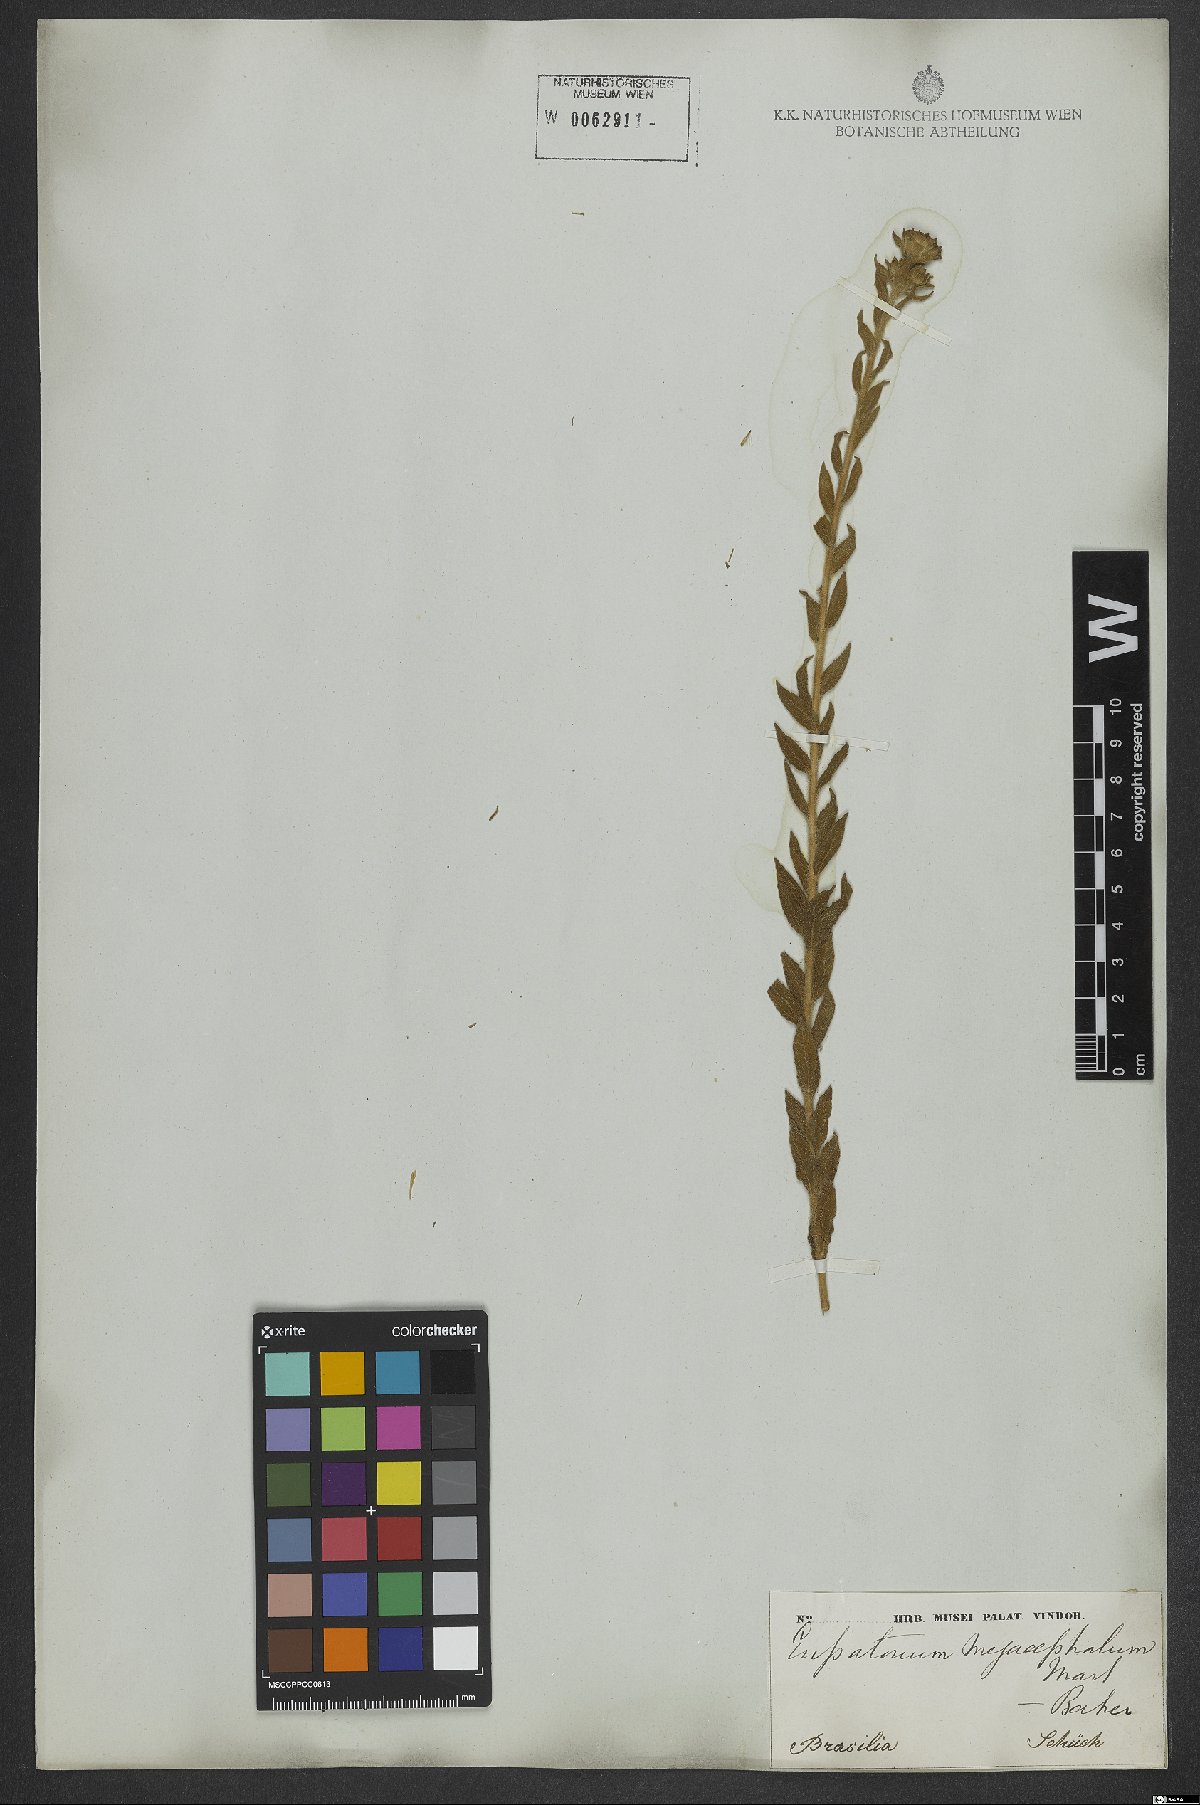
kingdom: Plantae
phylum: Tracheophyta
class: Magnoliopsida
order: Asterales
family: Asteraceae
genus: Campuloclinium
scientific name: Campuloclinium megacephalum
